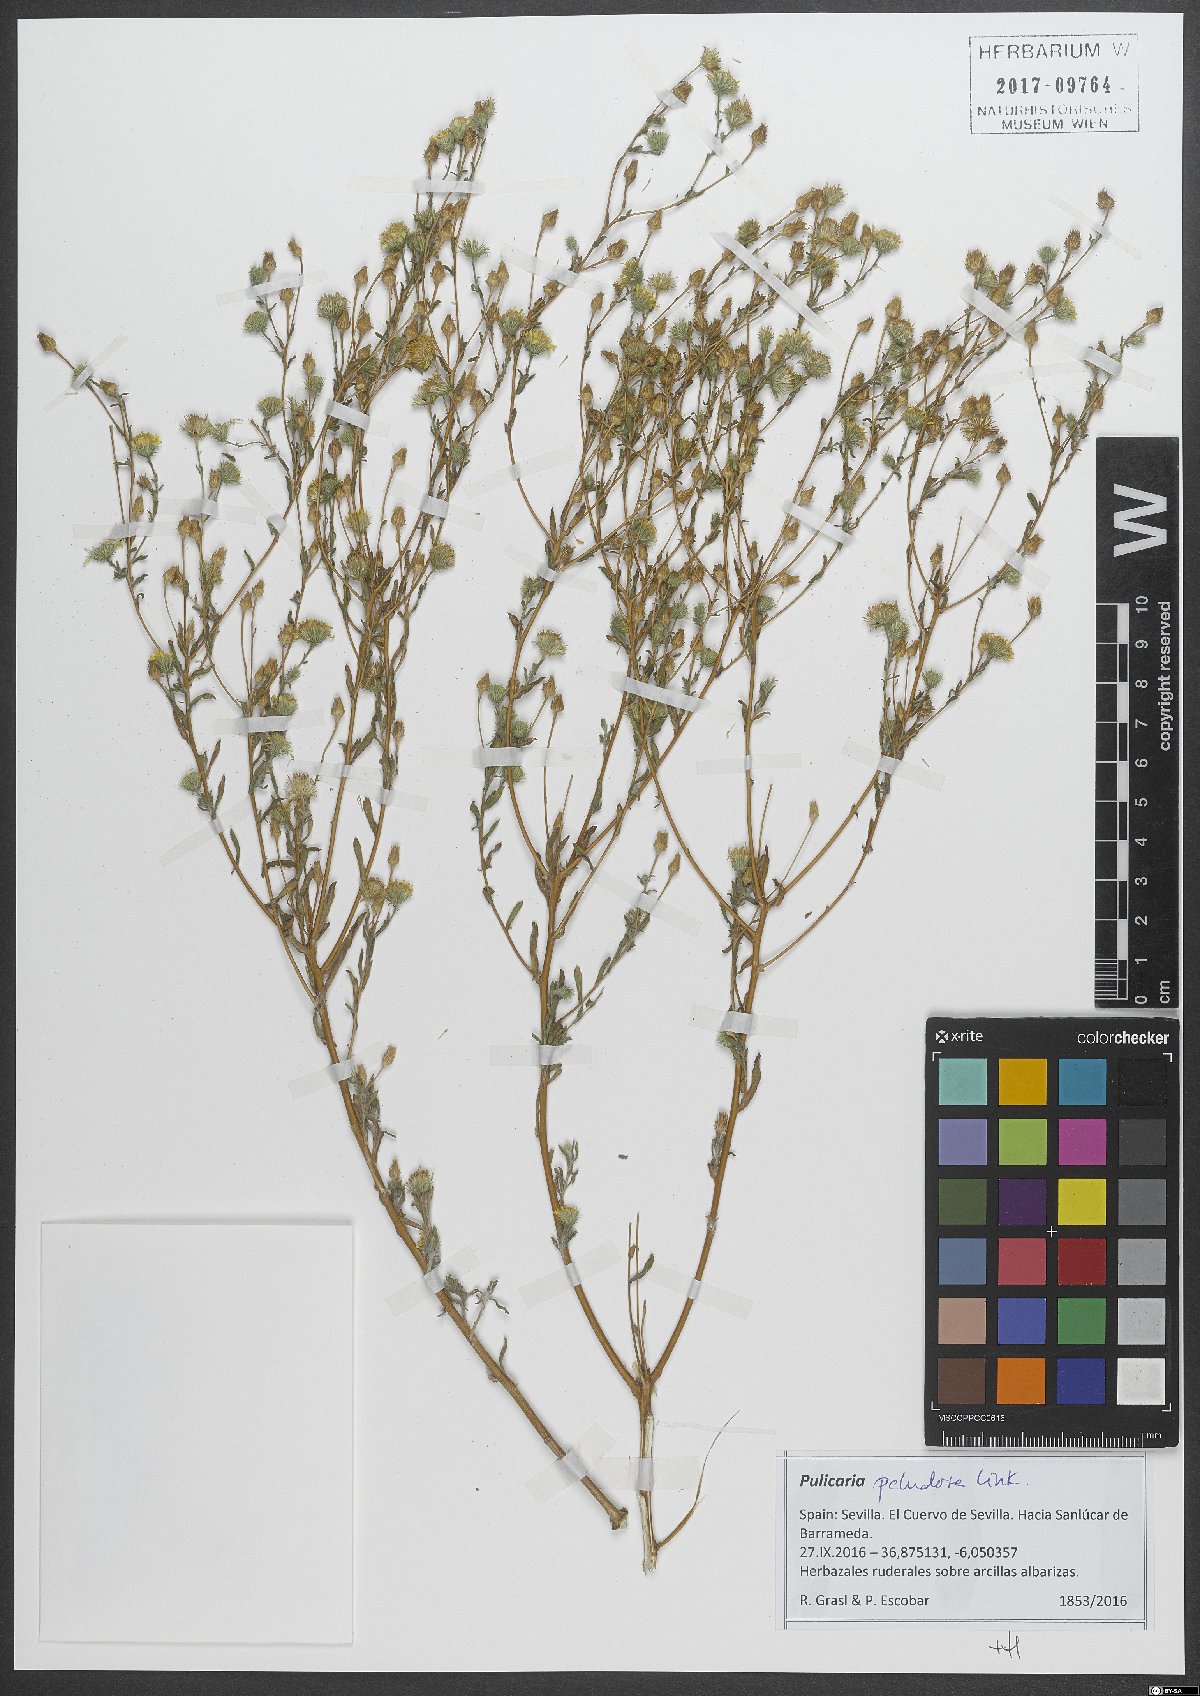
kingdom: Plantae
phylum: Tracheophyta
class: Magnoliopsida
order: Asterales
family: Asteraceae
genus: Pulicaria
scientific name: Pulicaria arabica
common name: Ladies' false fleabane
